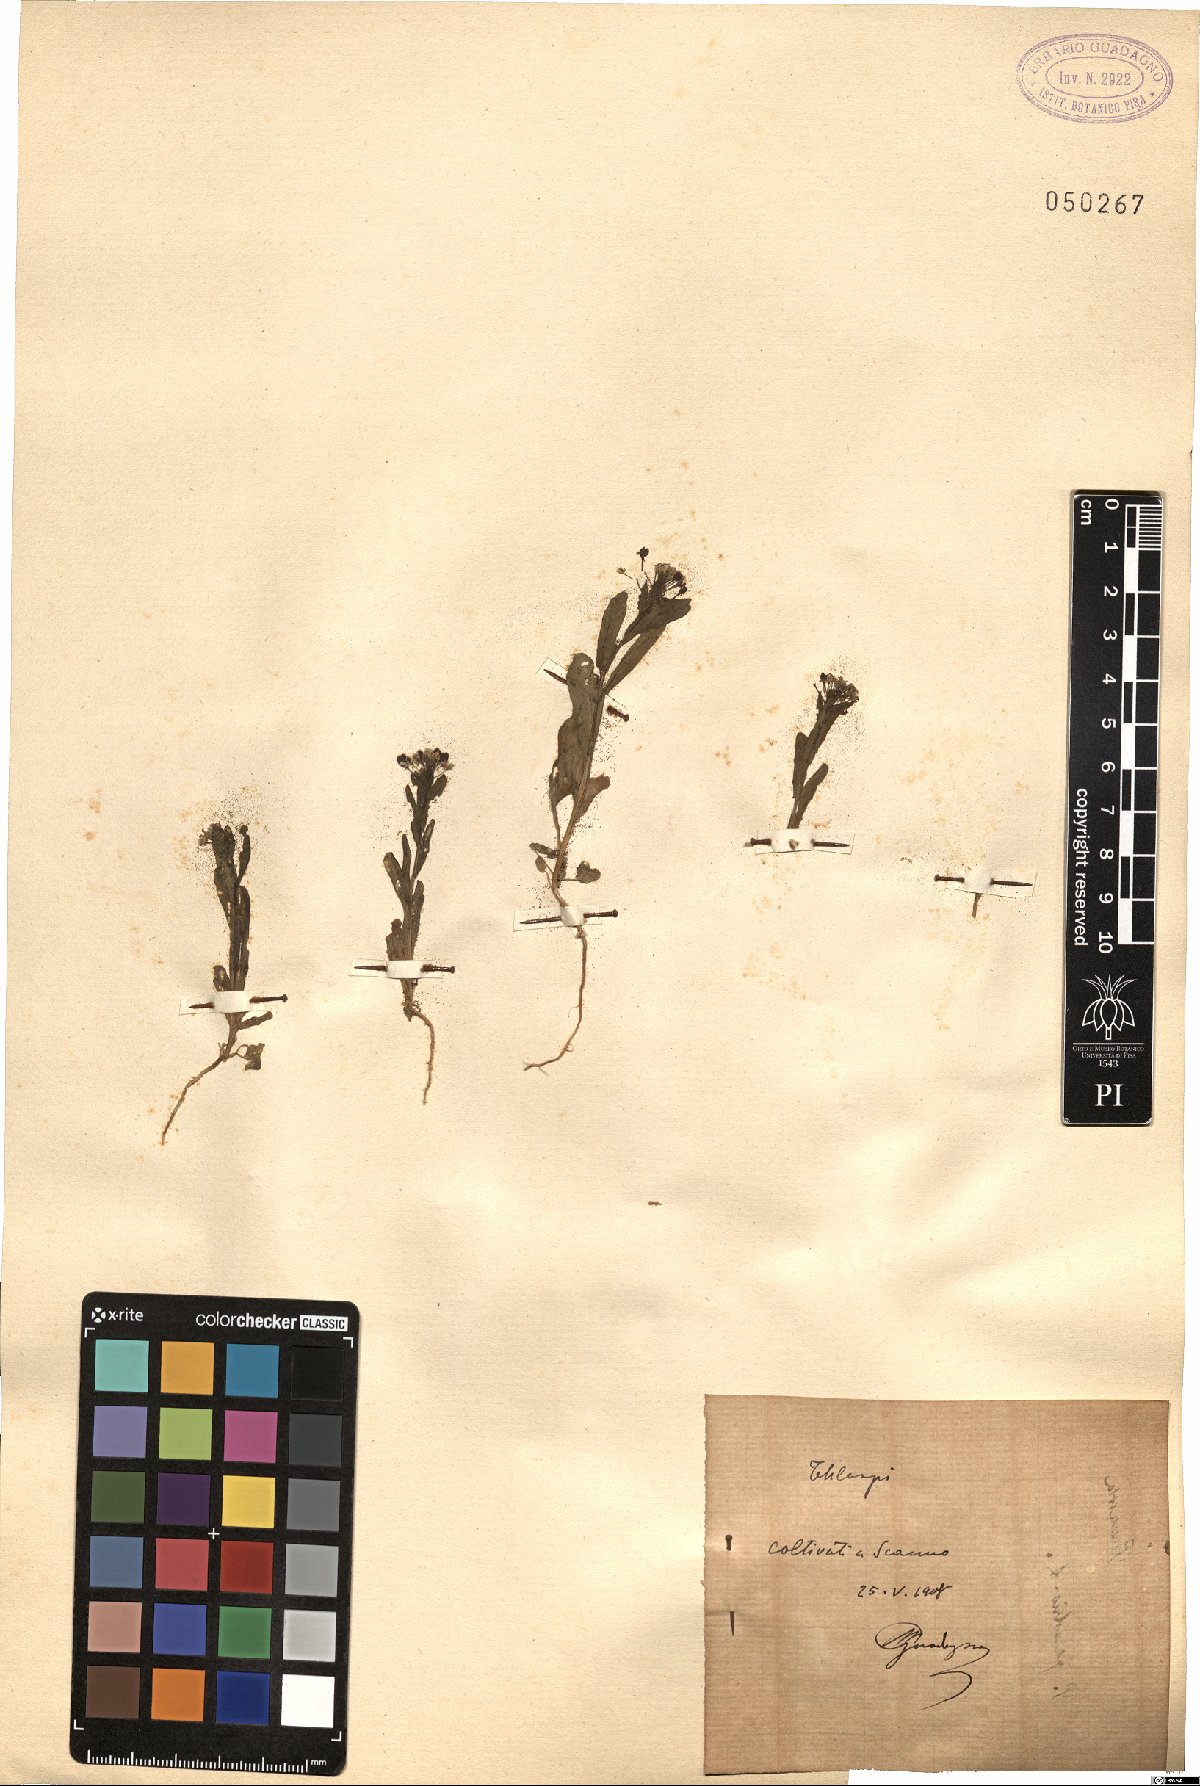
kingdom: Plantae
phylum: Tracheophyta
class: Magnoliopsida
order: Brassicales
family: Brassicaceae
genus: Thlaspi
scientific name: Thlaspi
